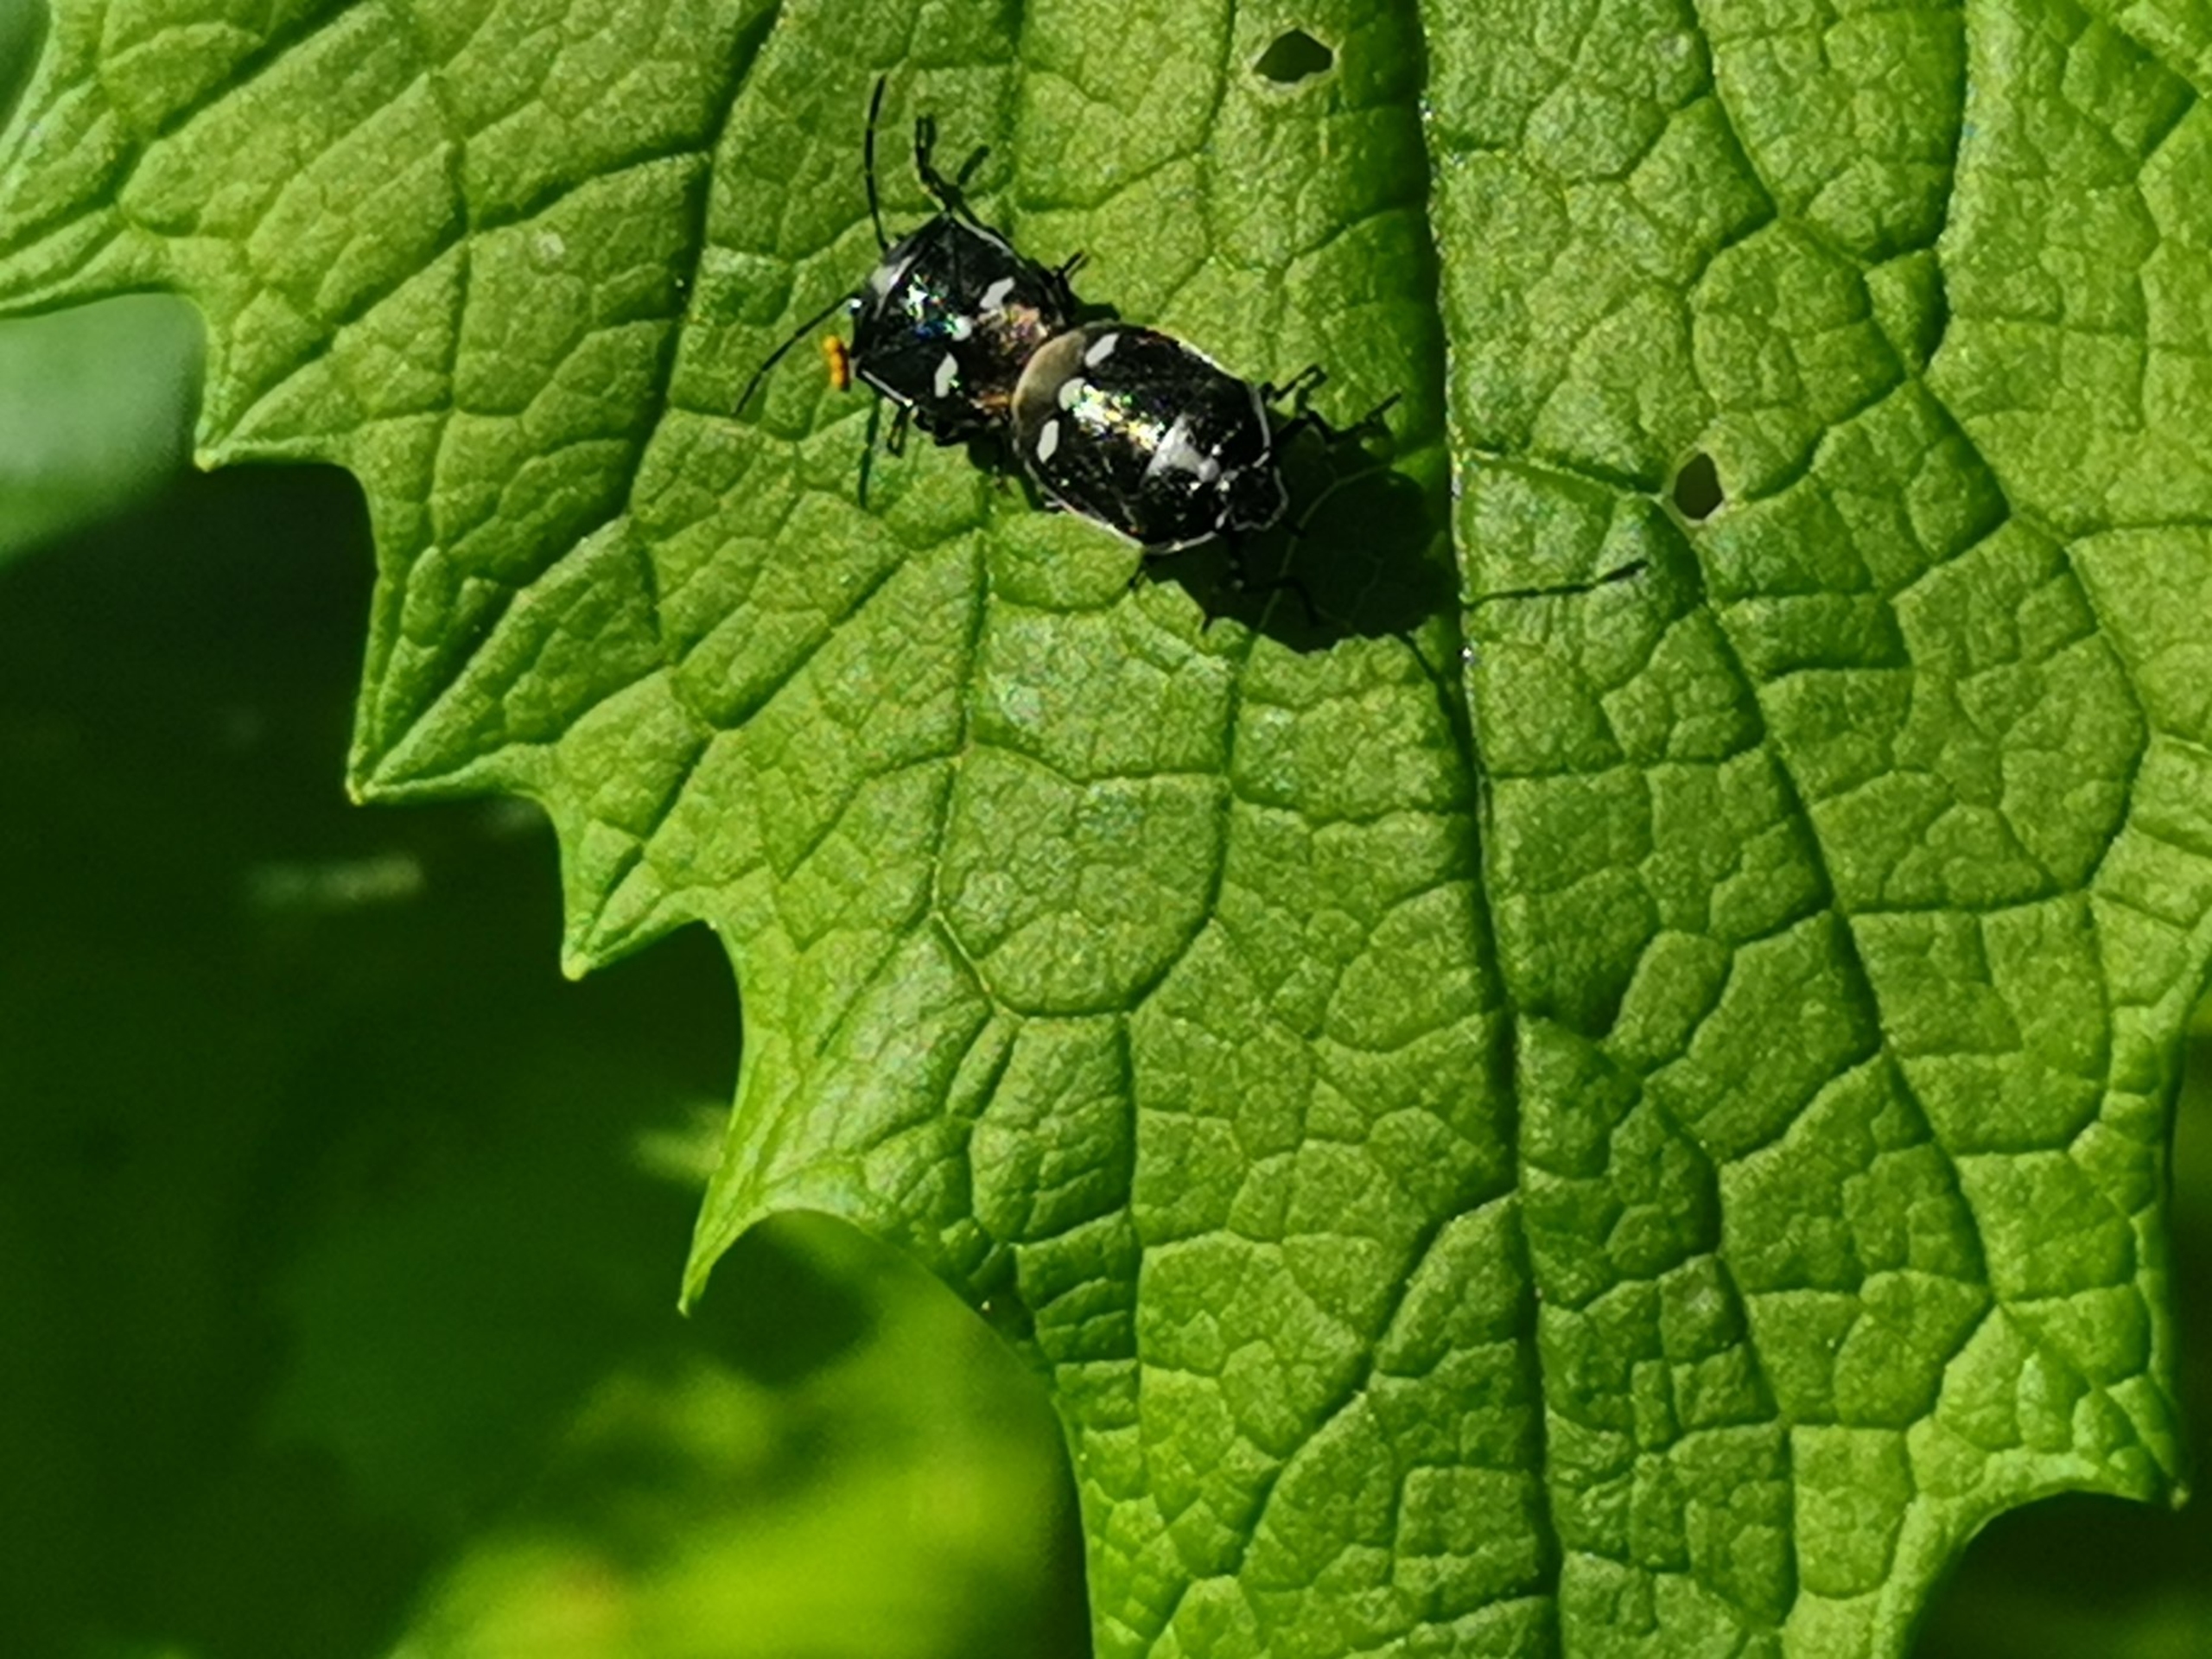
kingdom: Animalia
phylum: Arthropoda
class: Insecta
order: Hemiptera
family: Pentatomidae
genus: Eurydema
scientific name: Eurydema oleracea
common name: Almindelig kåltæge
